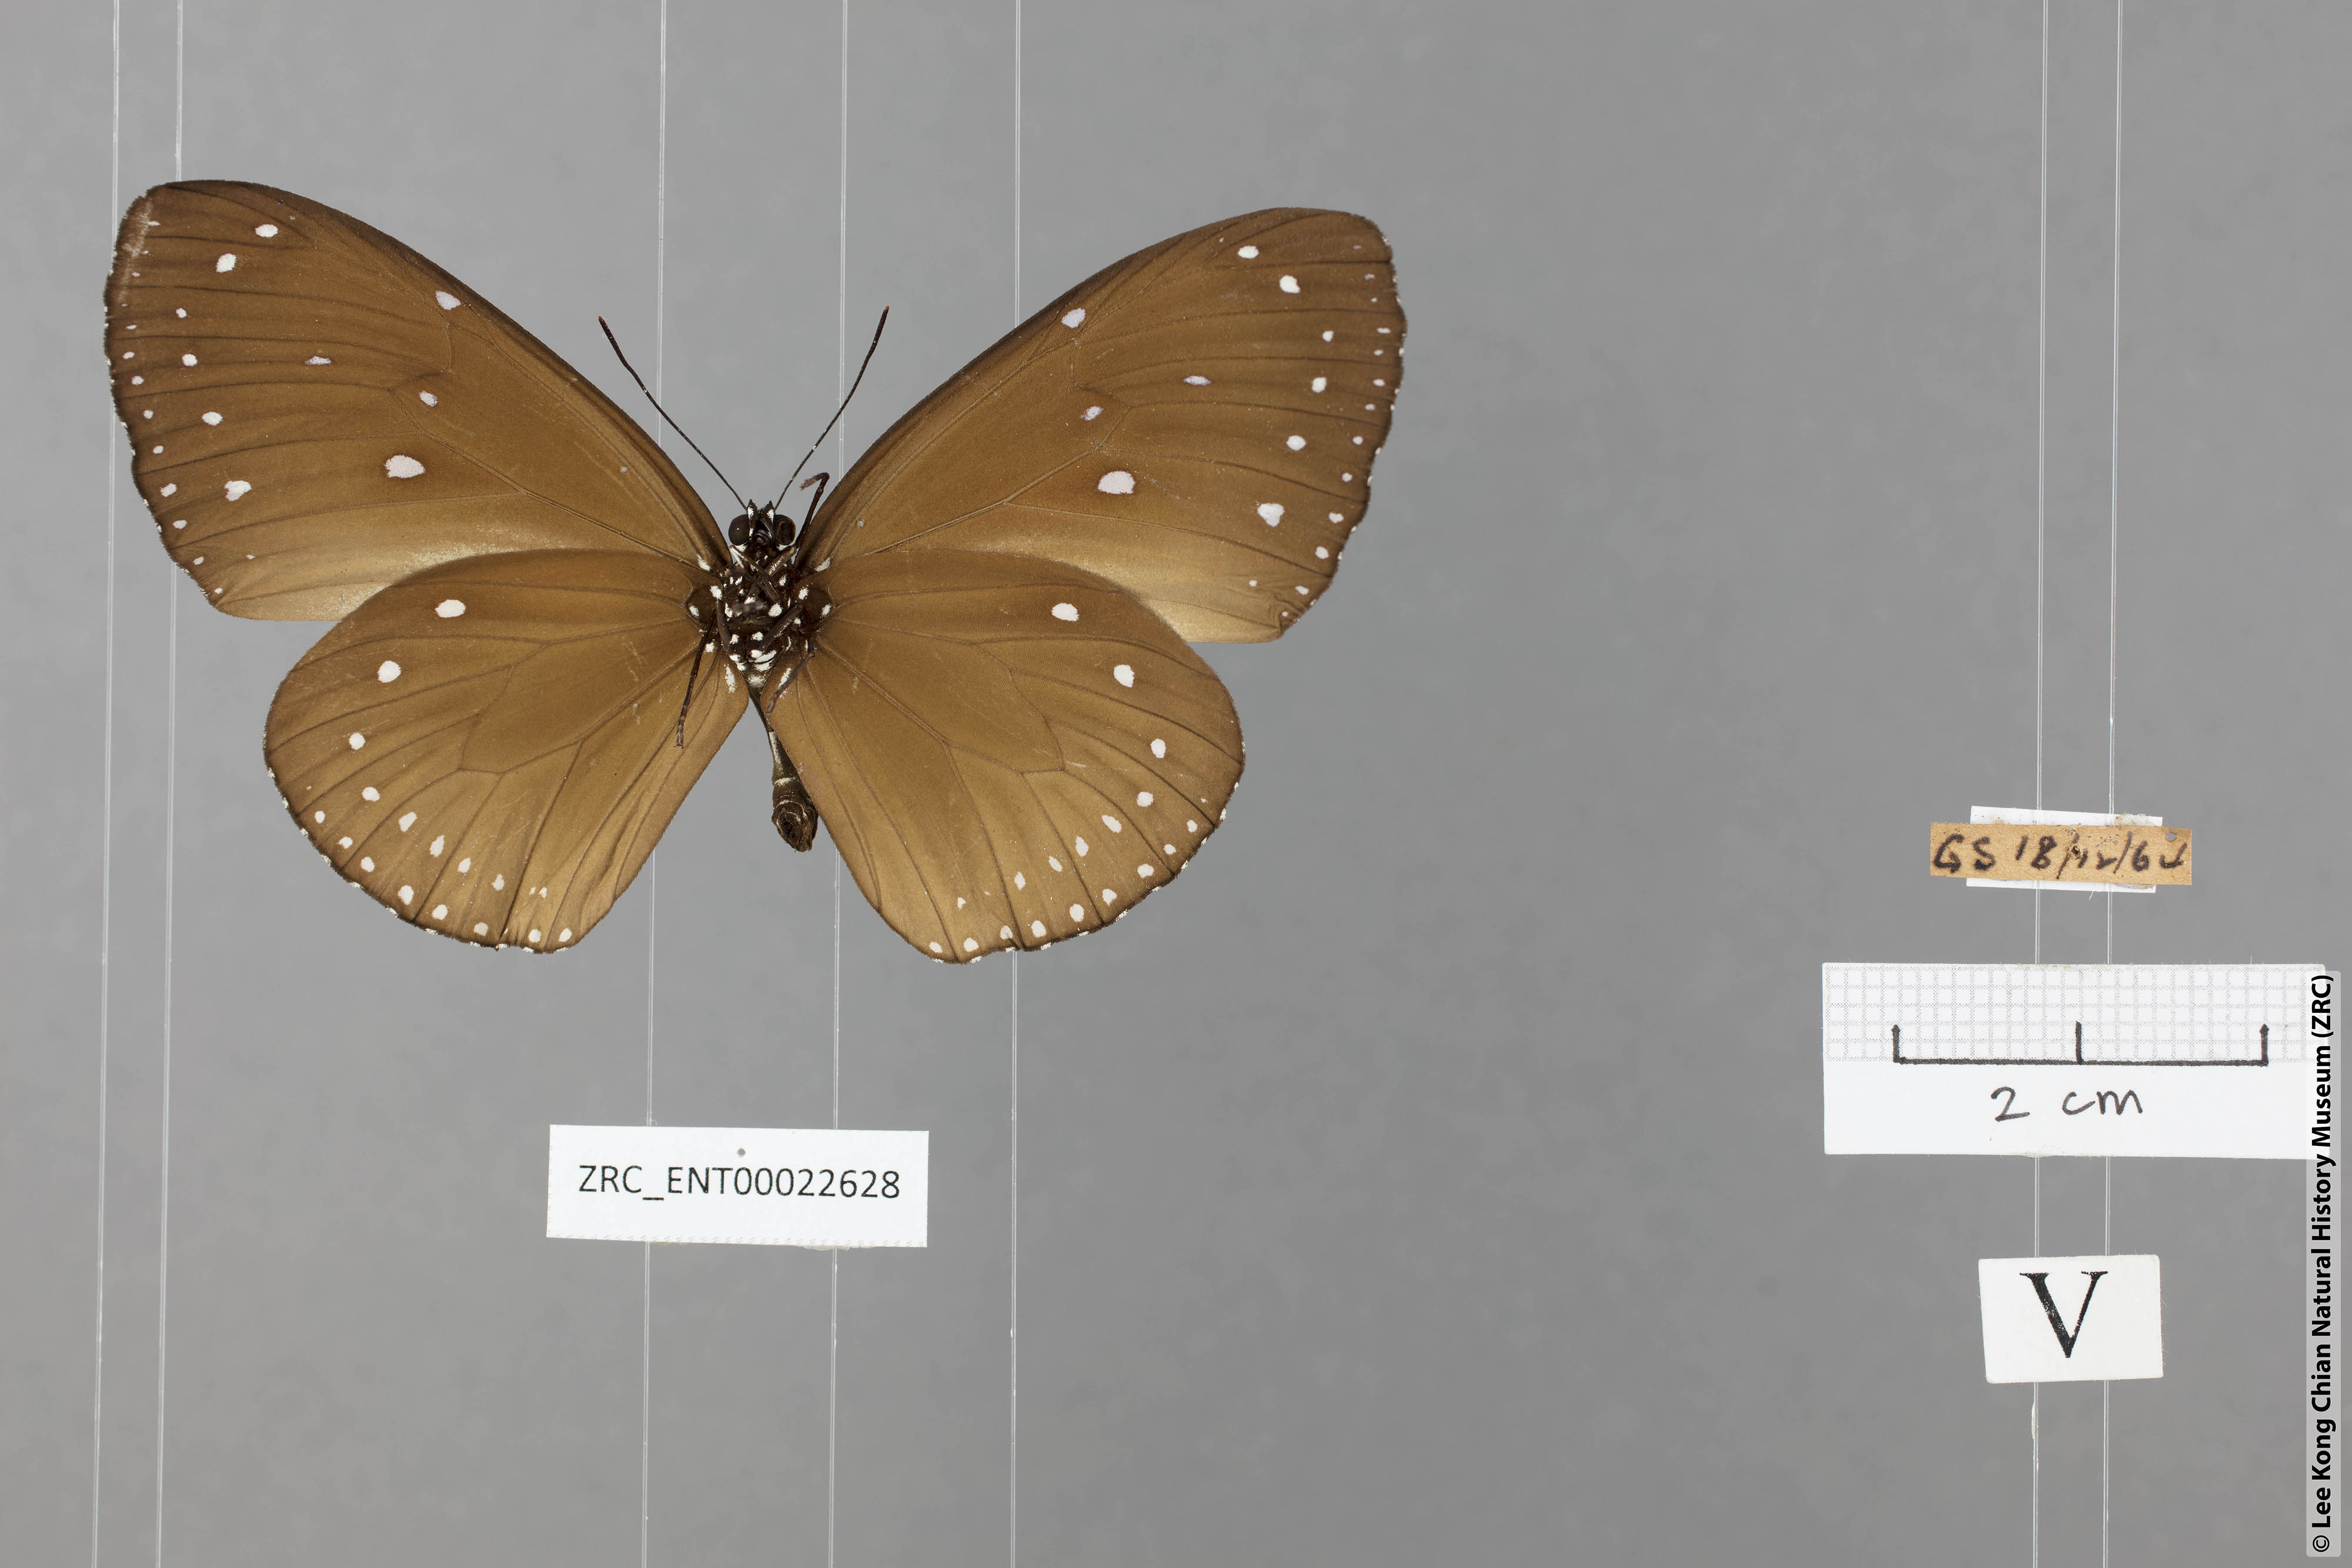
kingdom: Animalia
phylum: Arthropoda
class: Insecta
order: Lepidoptera
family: Nymphalidae
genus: Euploea
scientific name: Euploea tulliolus
